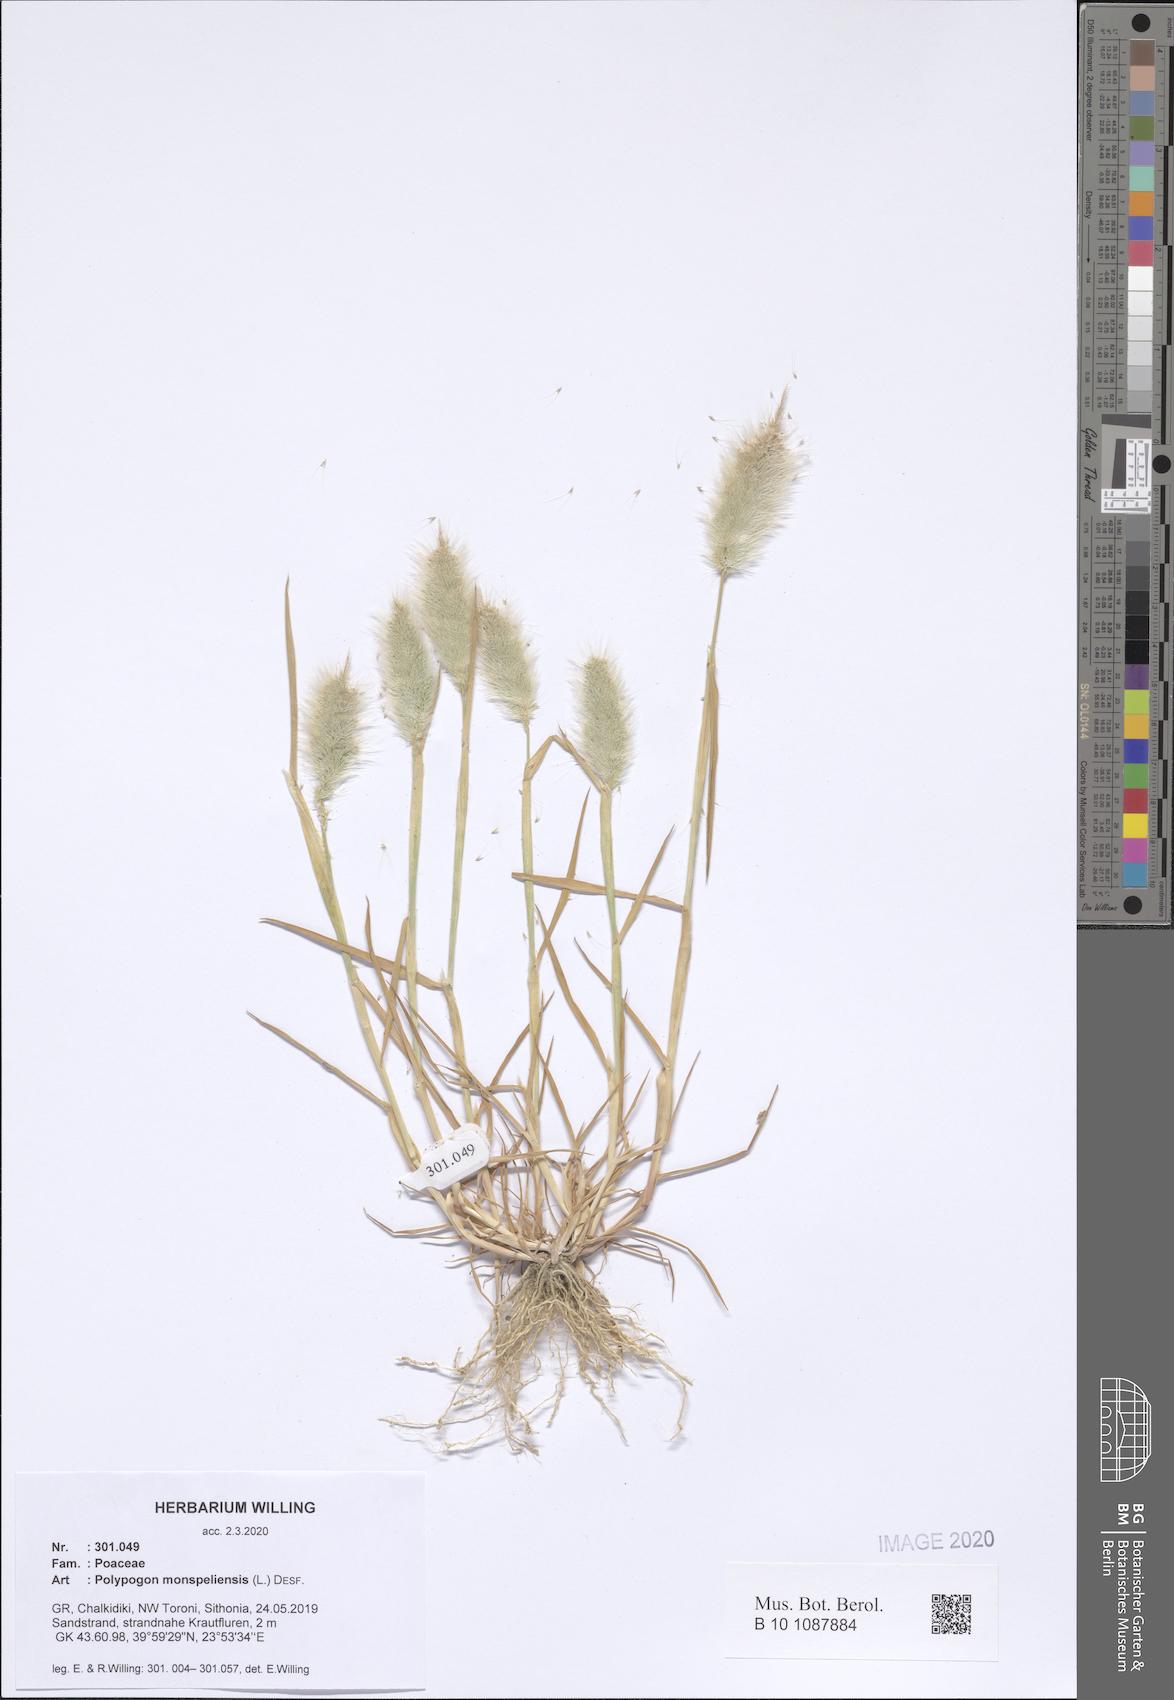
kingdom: Plantae
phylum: Tracheophyta
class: Liliopsida
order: Poales
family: Poaceae
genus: Polypogon
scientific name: Polypogon monspeliensis
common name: Annual rabbitsfoot grass
